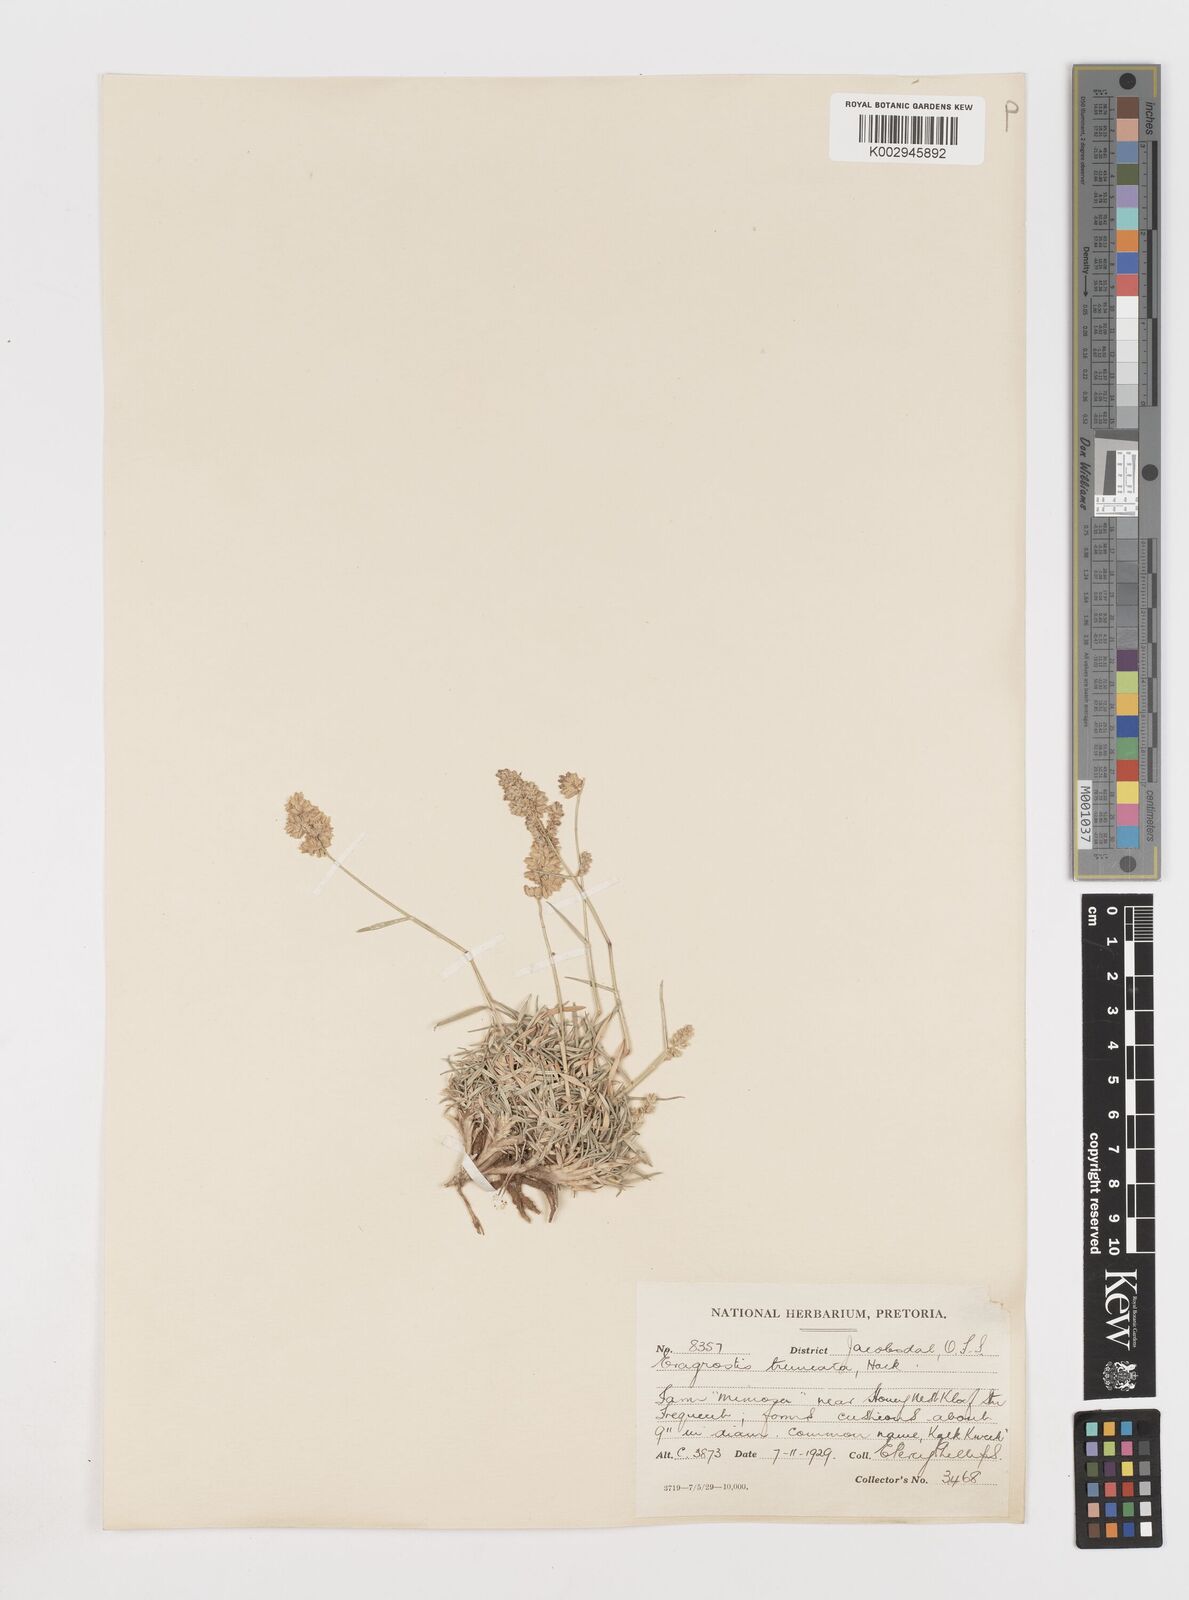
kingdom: Plantae
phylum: Tracheophyta
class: Liliopsida
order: Poales
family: Poaceae
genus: Eragrostis
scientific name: Eragrostis truncata
